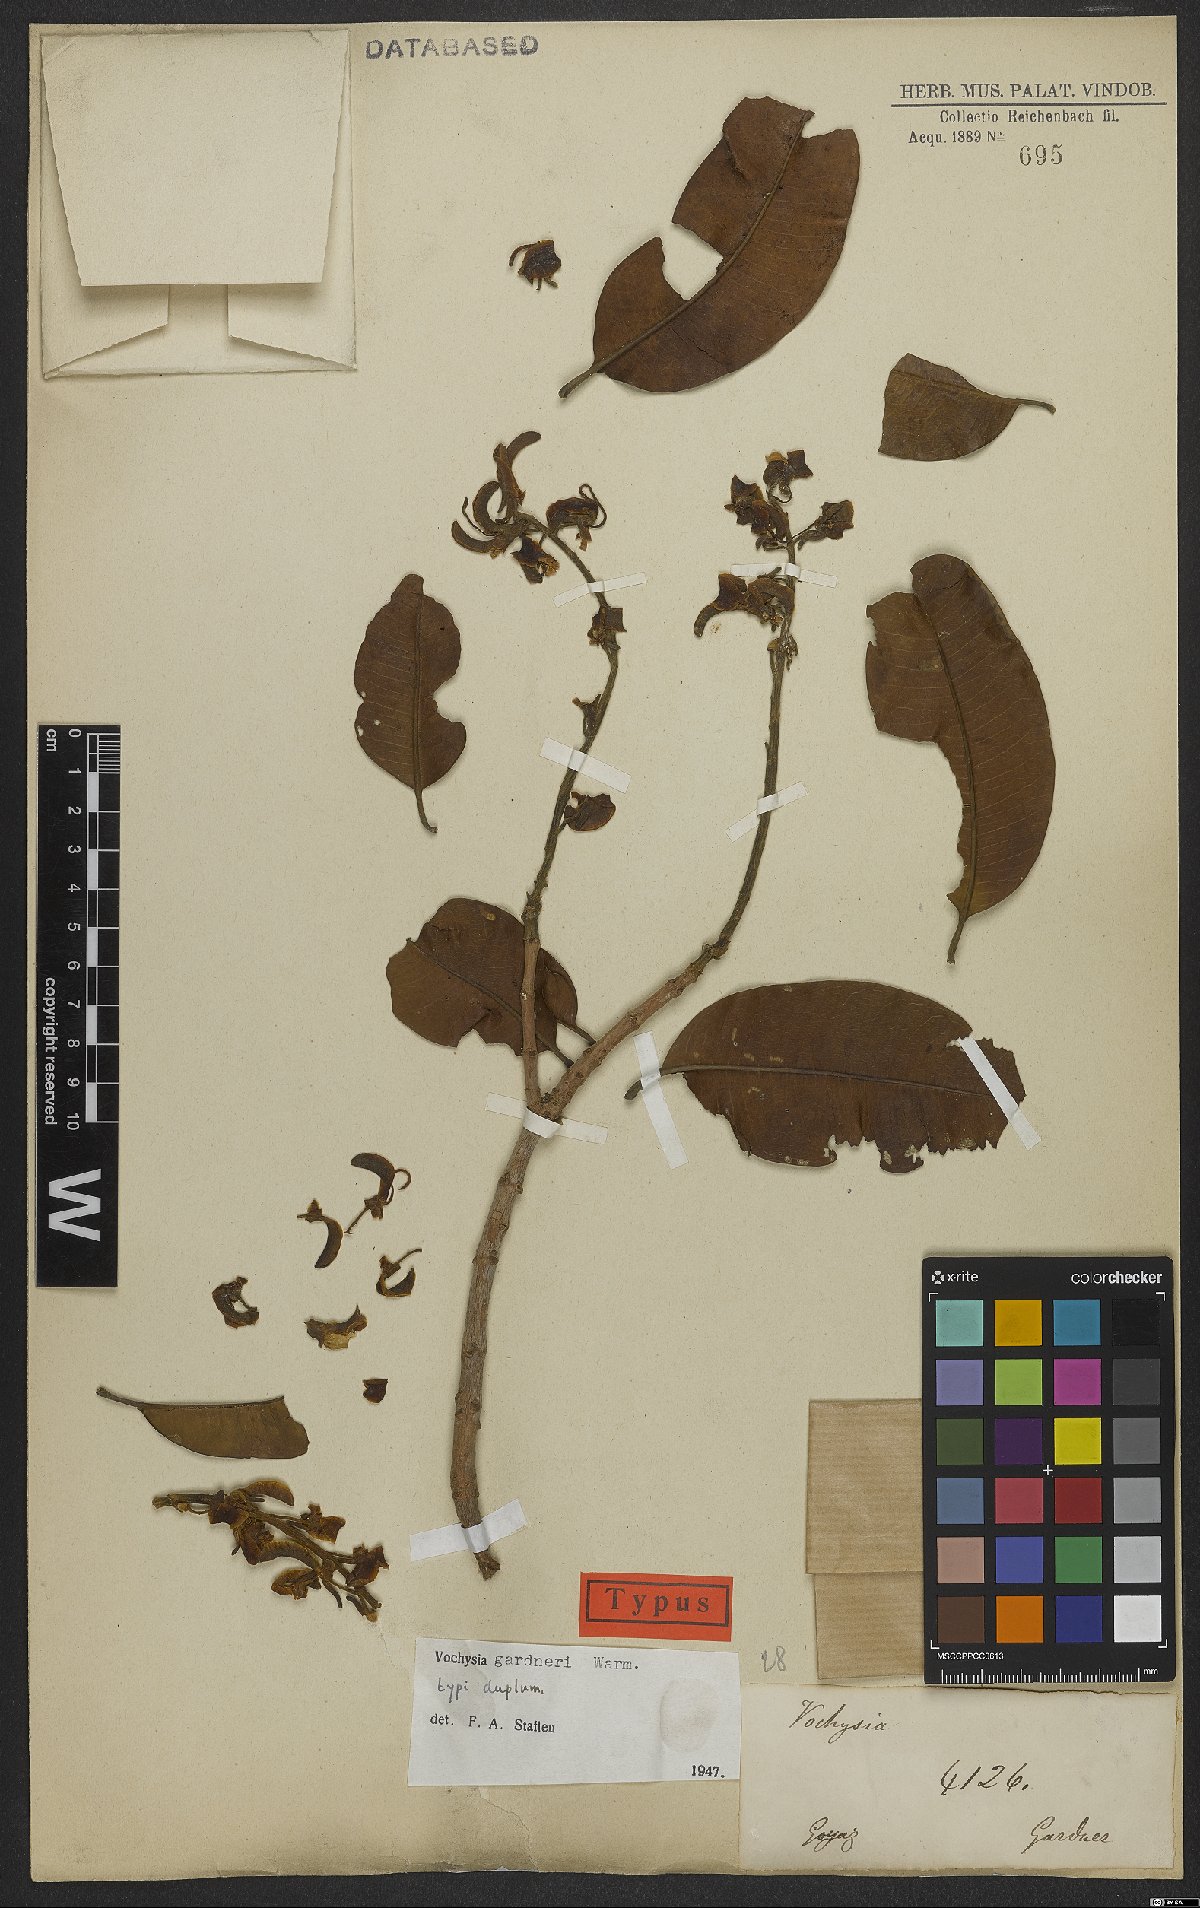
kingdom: Plantae
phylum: Tracheophyta
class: Magnoliopsida
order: Myrtales
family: Vochysiaceae
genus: Vochysia
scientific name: Vochysia gardneri
